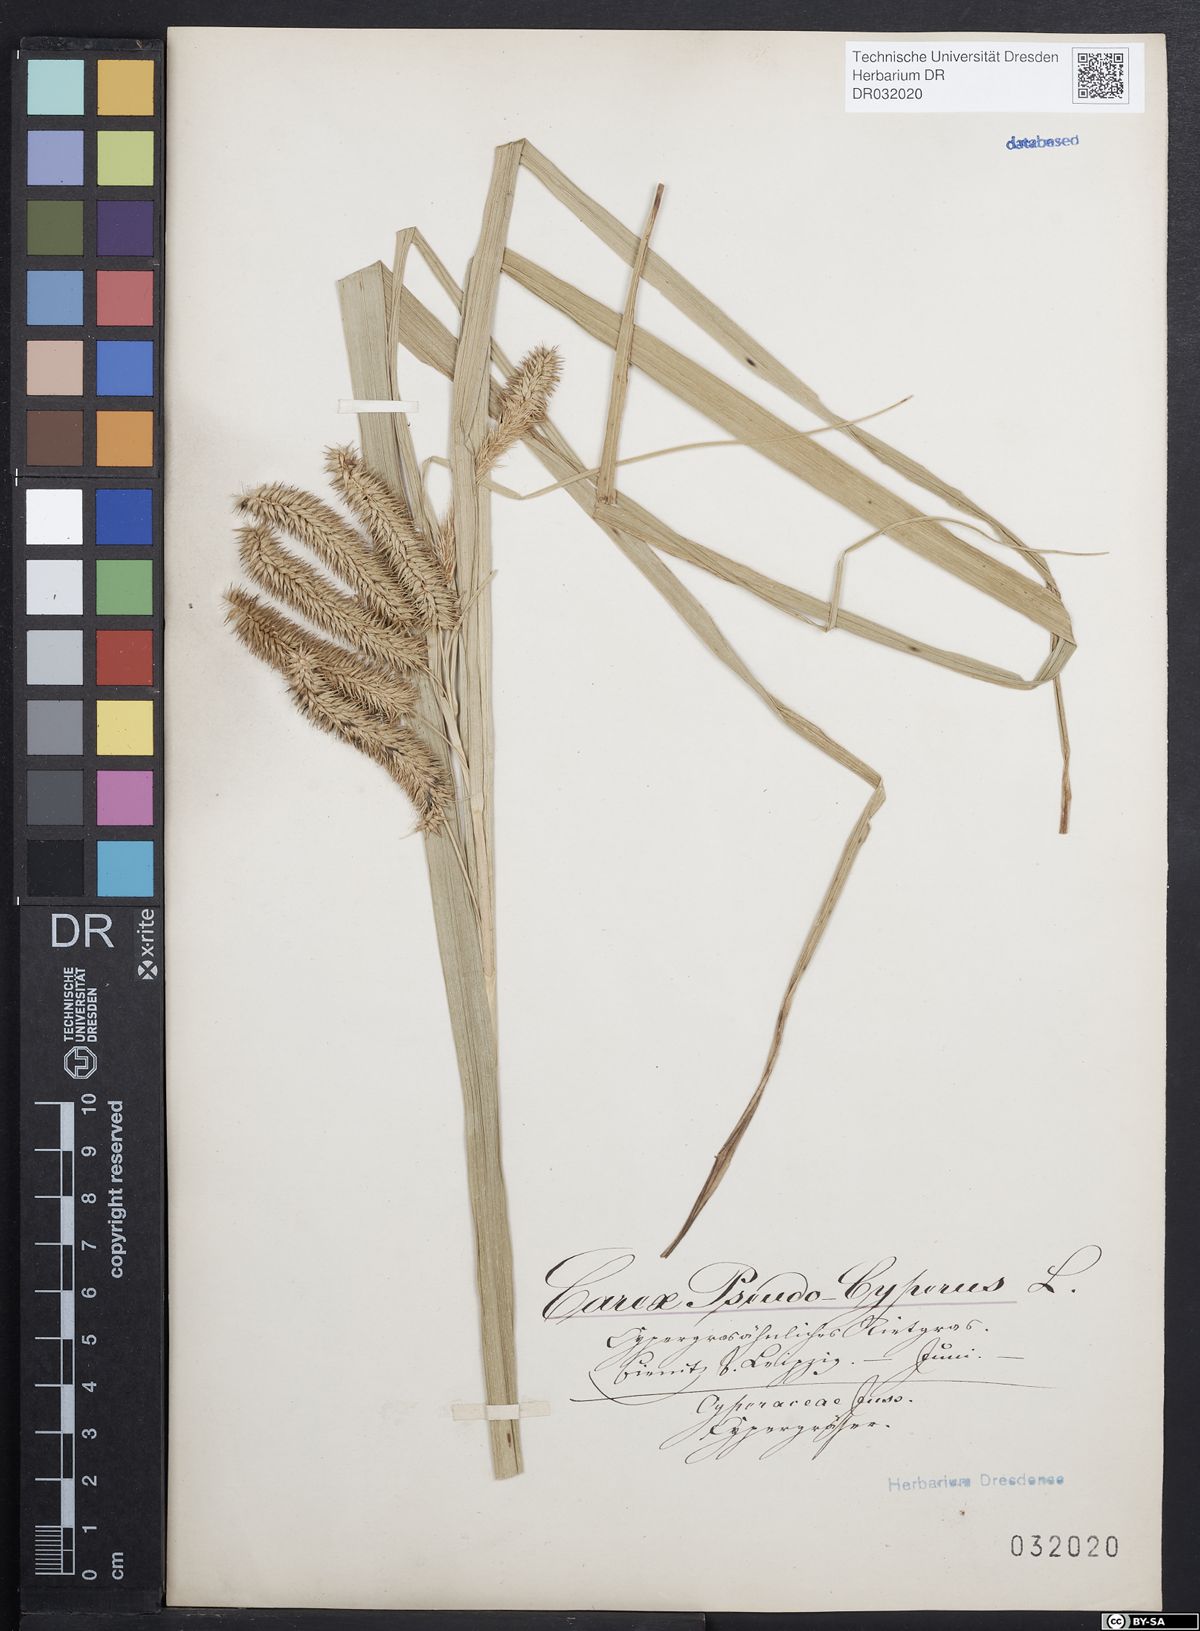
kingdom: Plantae
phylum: Tracheophyta
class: Liliopsida
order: Poales
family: Cyperaceae
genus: Carex
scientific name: Carex pseudocyperus
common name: Cyperus sedge
